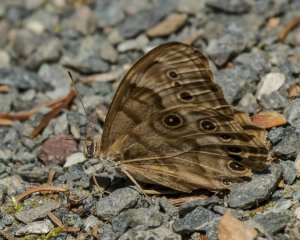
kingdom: Animalia
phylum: Arthropoda
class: Insecta
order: Lepidoptera
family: Nymphalidae
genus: Lethe
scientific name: Lethe anthedon
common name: Northern Pearly-Eye
